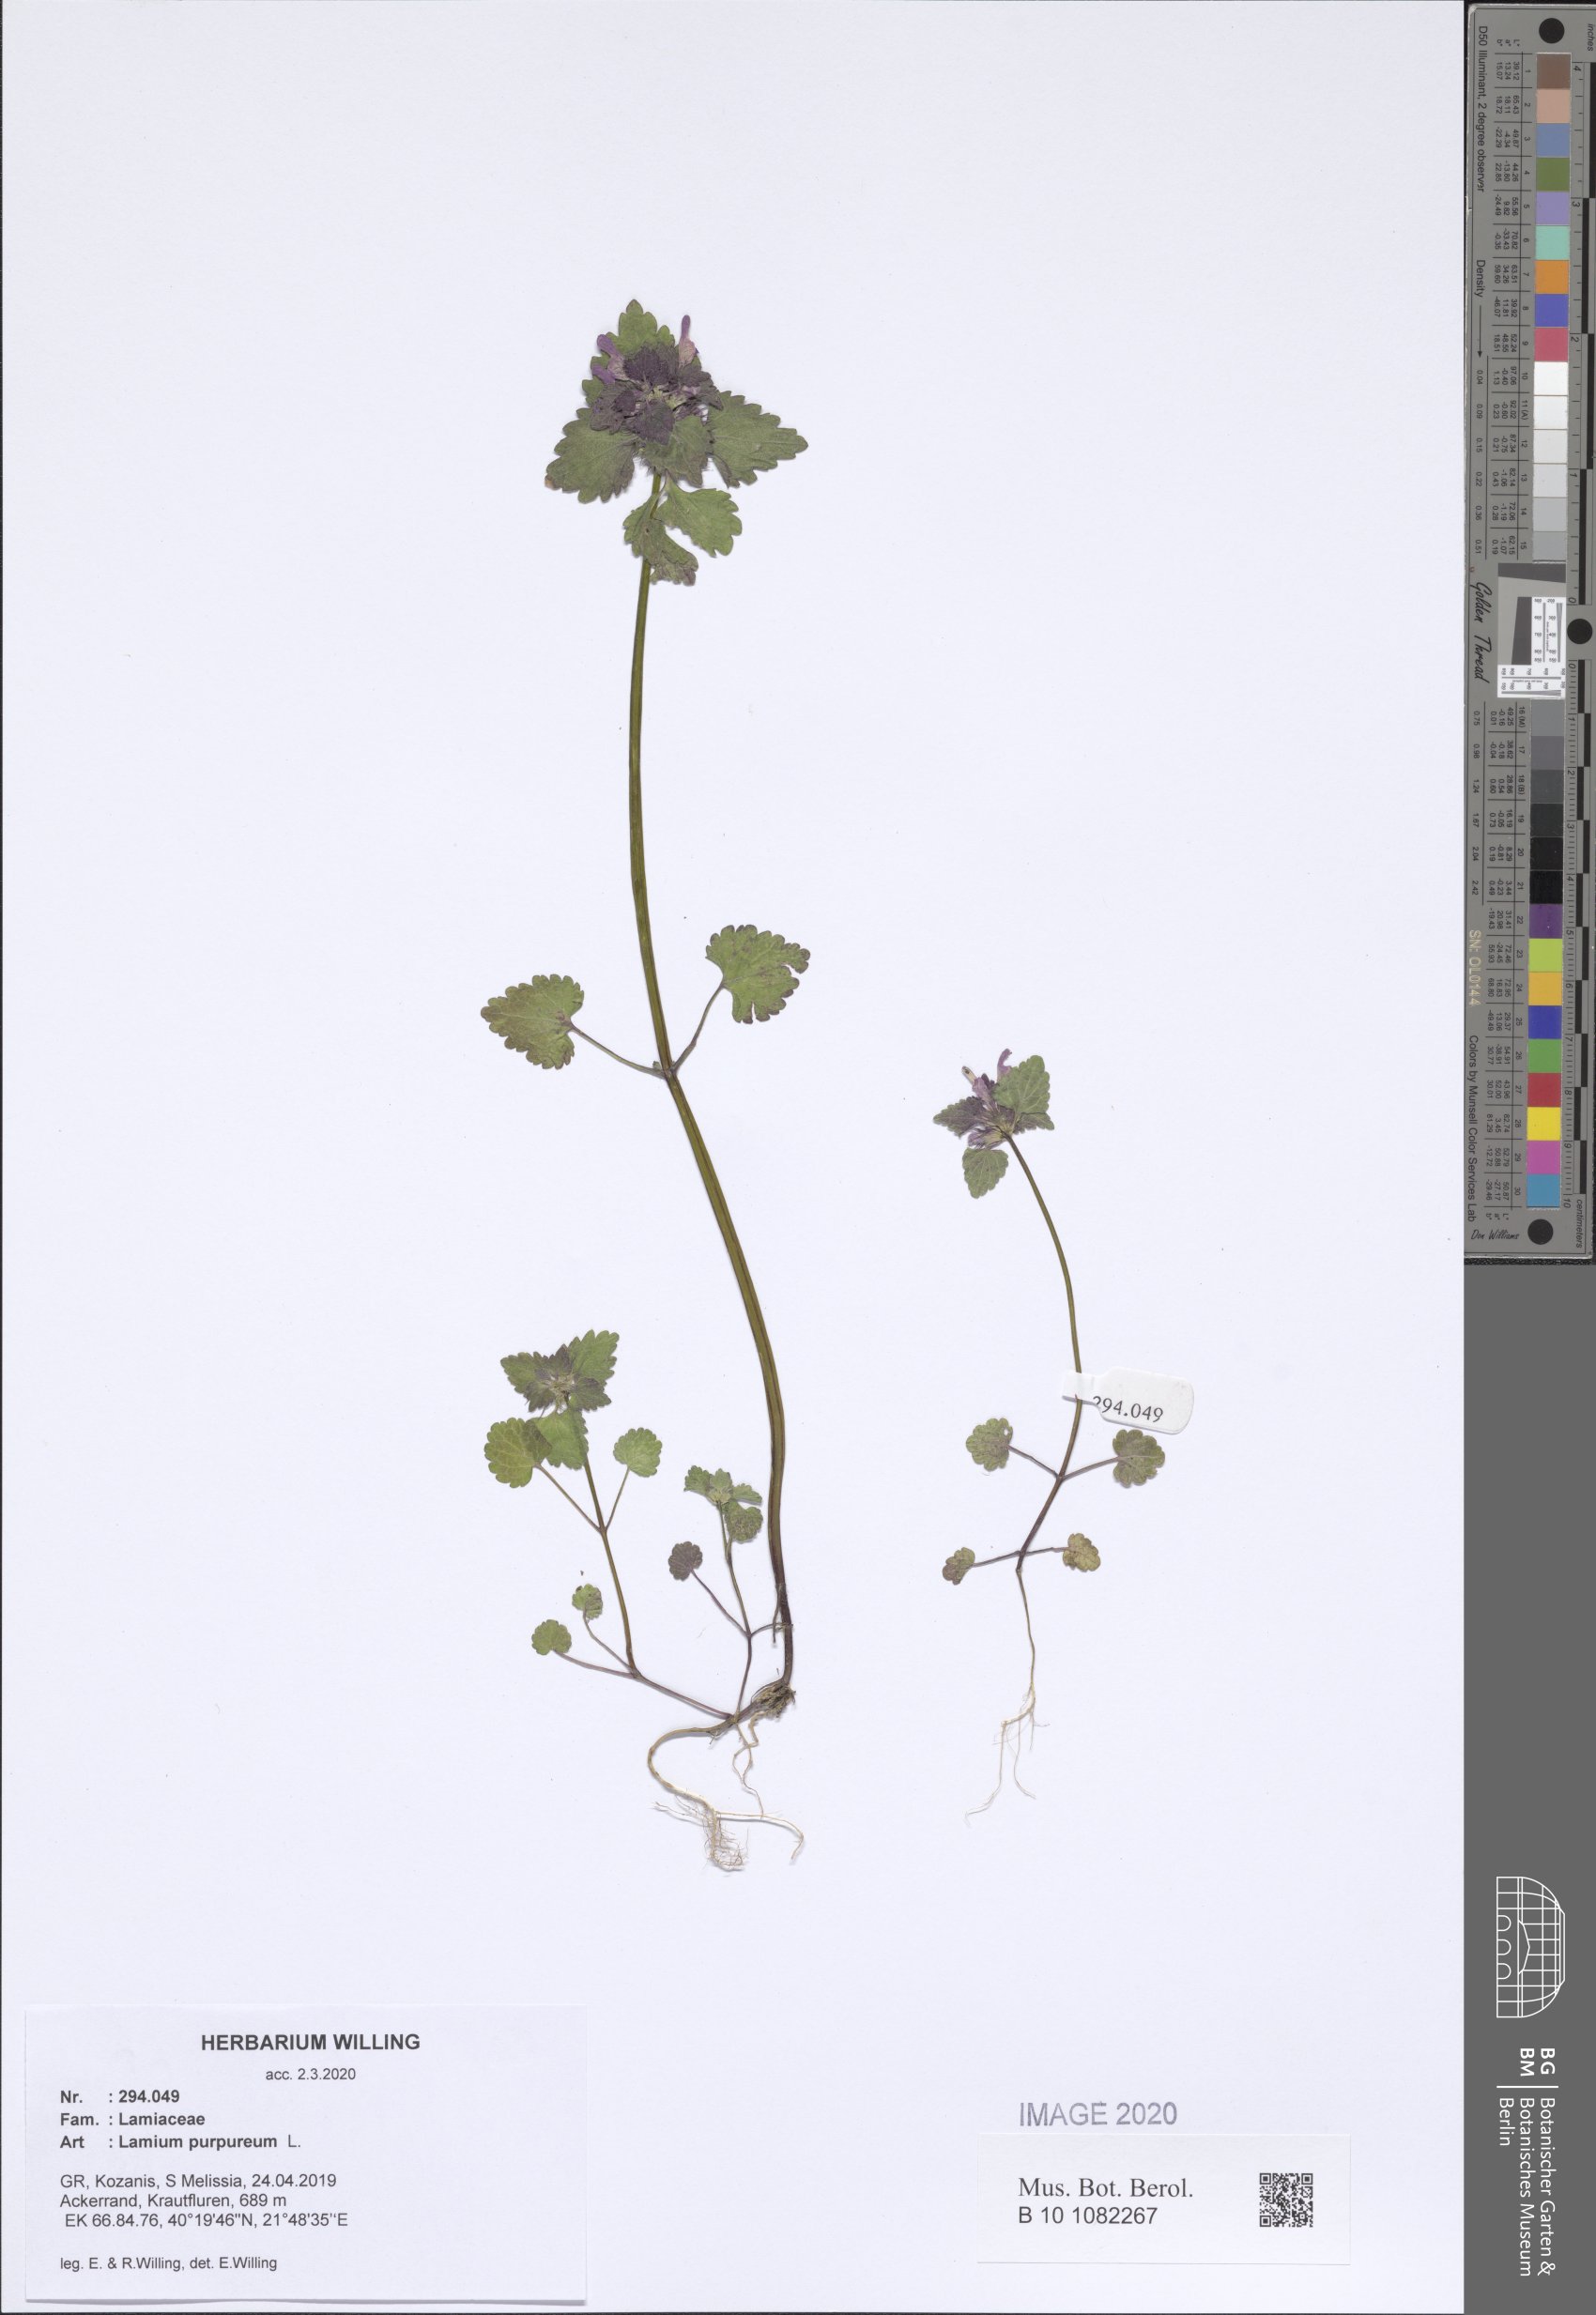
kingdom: Plantae
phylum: Tracheophyta
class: Magnoliopsida
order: Lamiales
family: Lamiaceae
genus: Lamium
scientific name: Lamium purpureum
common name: Red dead-nettle
